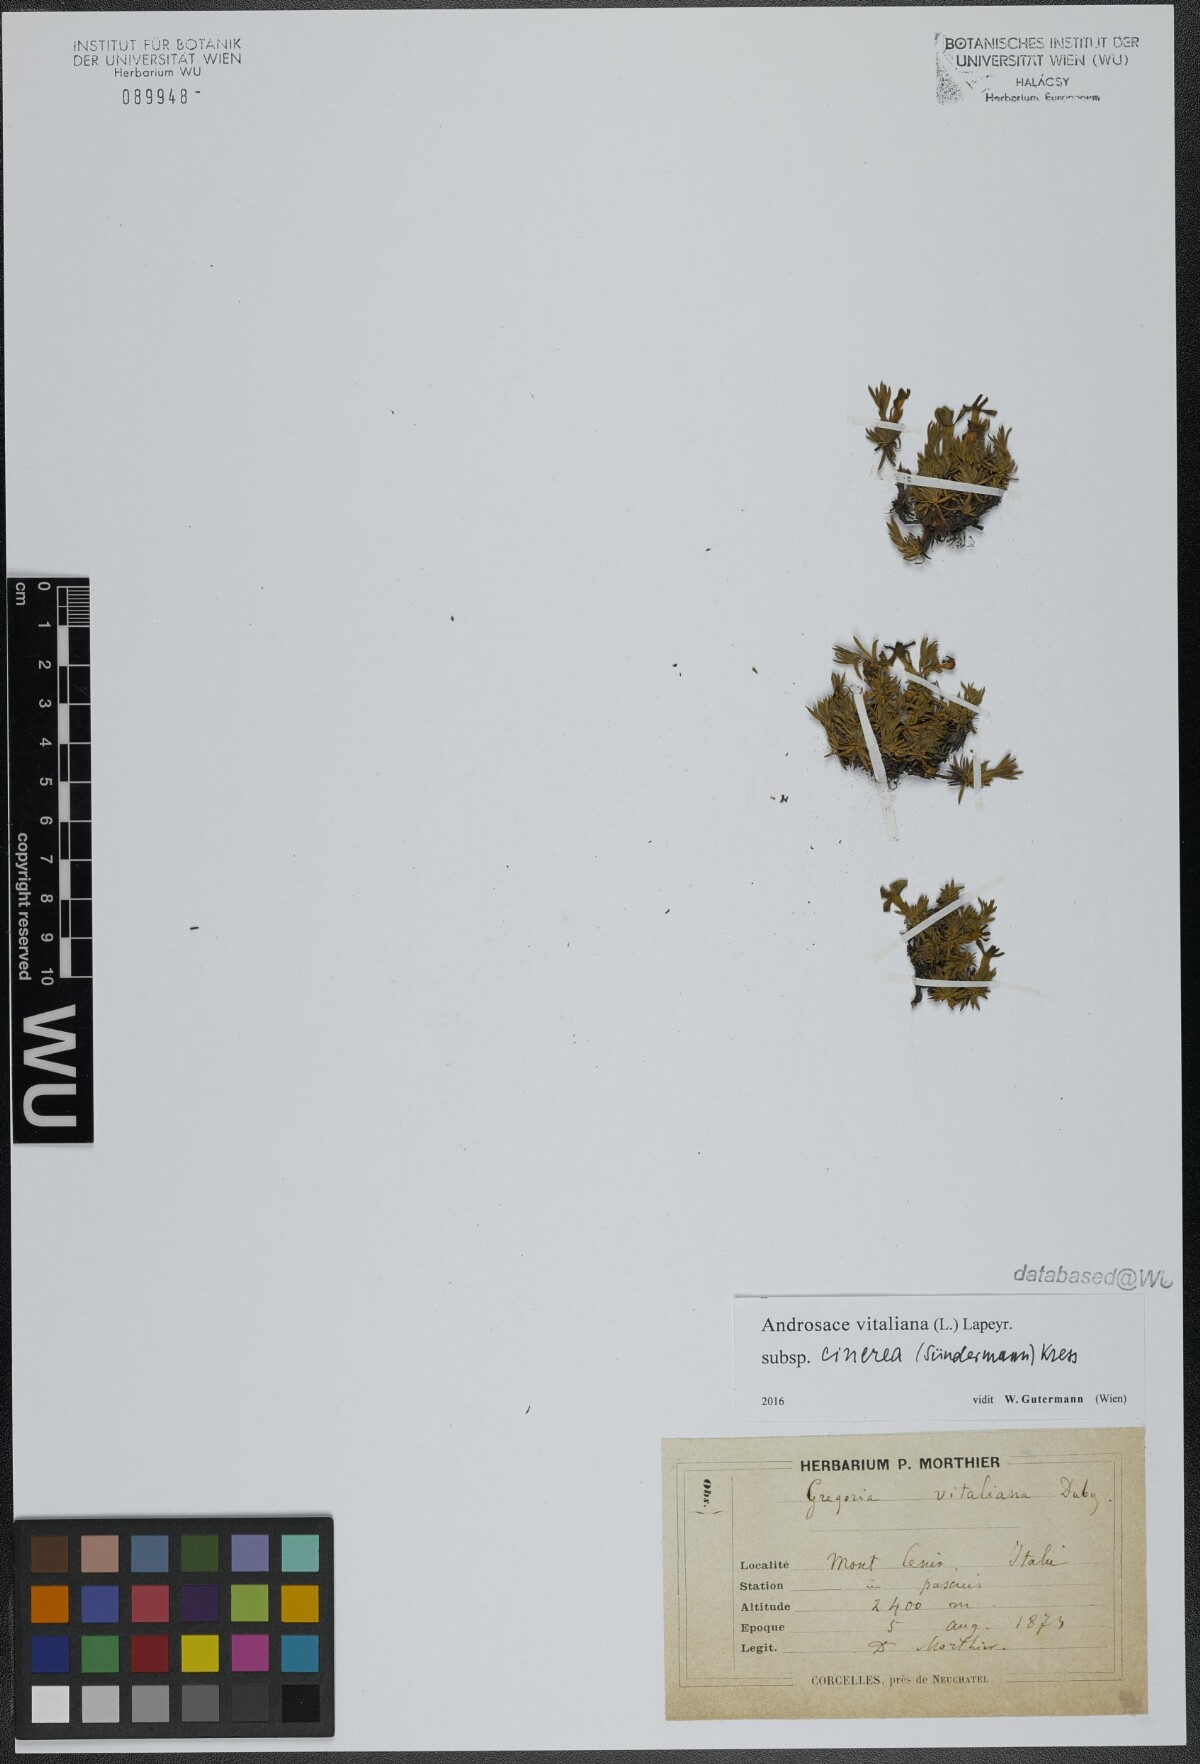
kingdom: Plantae
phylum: Tracheophyta
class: Magnoliopsida
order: Ericales
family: Primulaceae
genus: Androsace
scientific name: Androsace vitaliana
